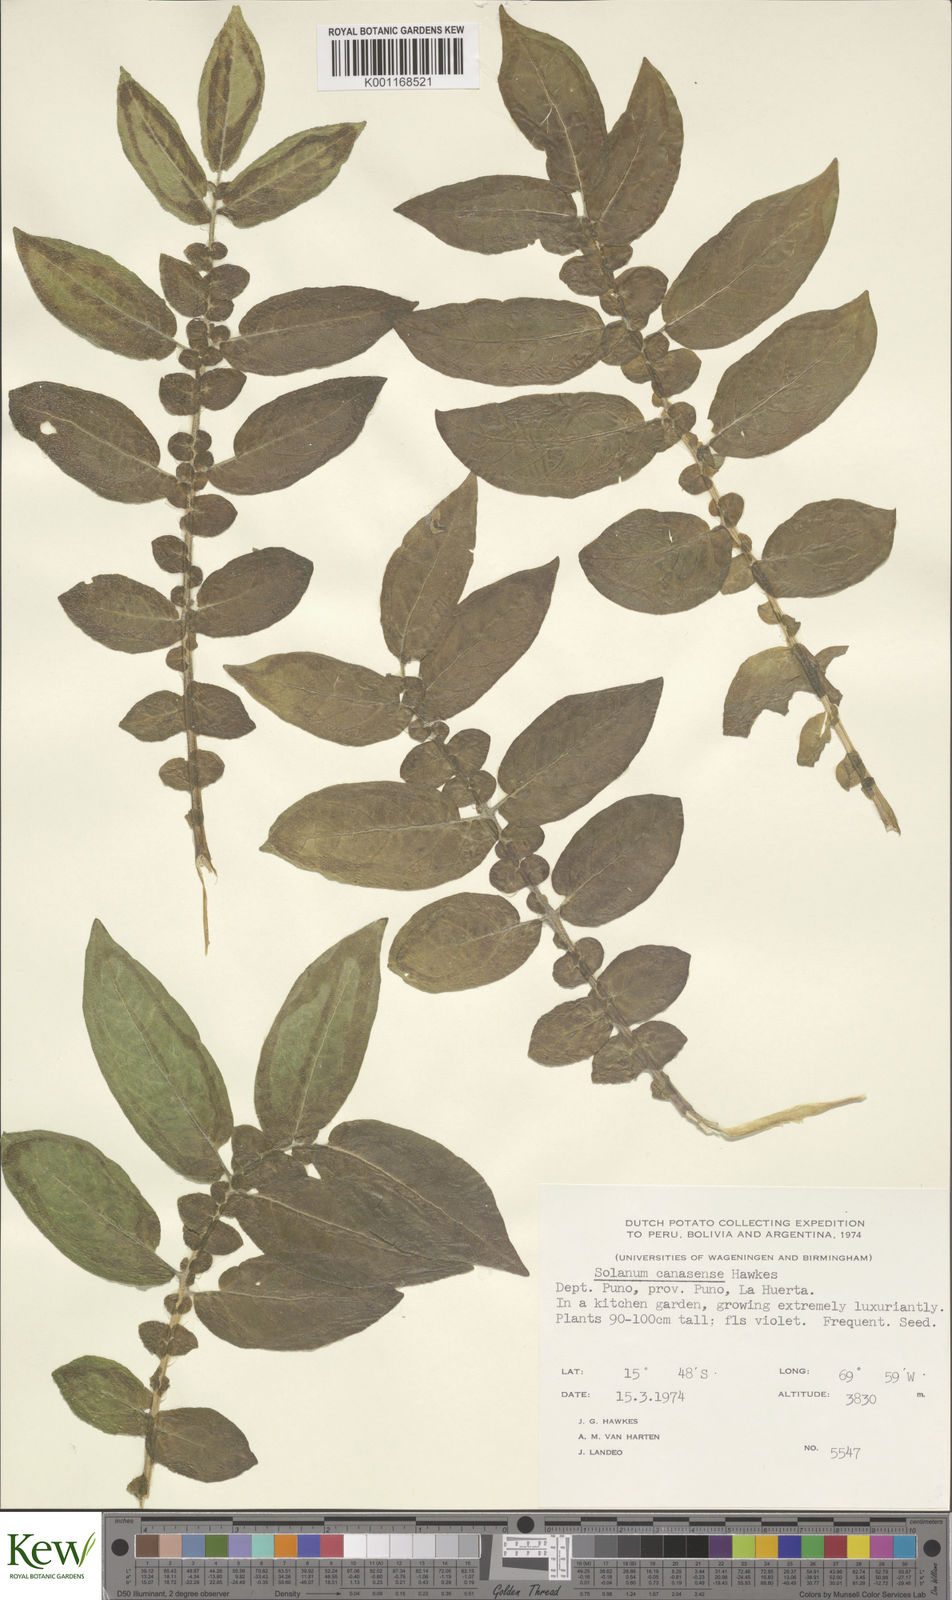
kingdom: Plantae
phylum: Tracheophyta
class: Magnoliopsida
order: Solanales
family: Solanaceae
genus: Solanum
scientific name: Solanum candolleanum
